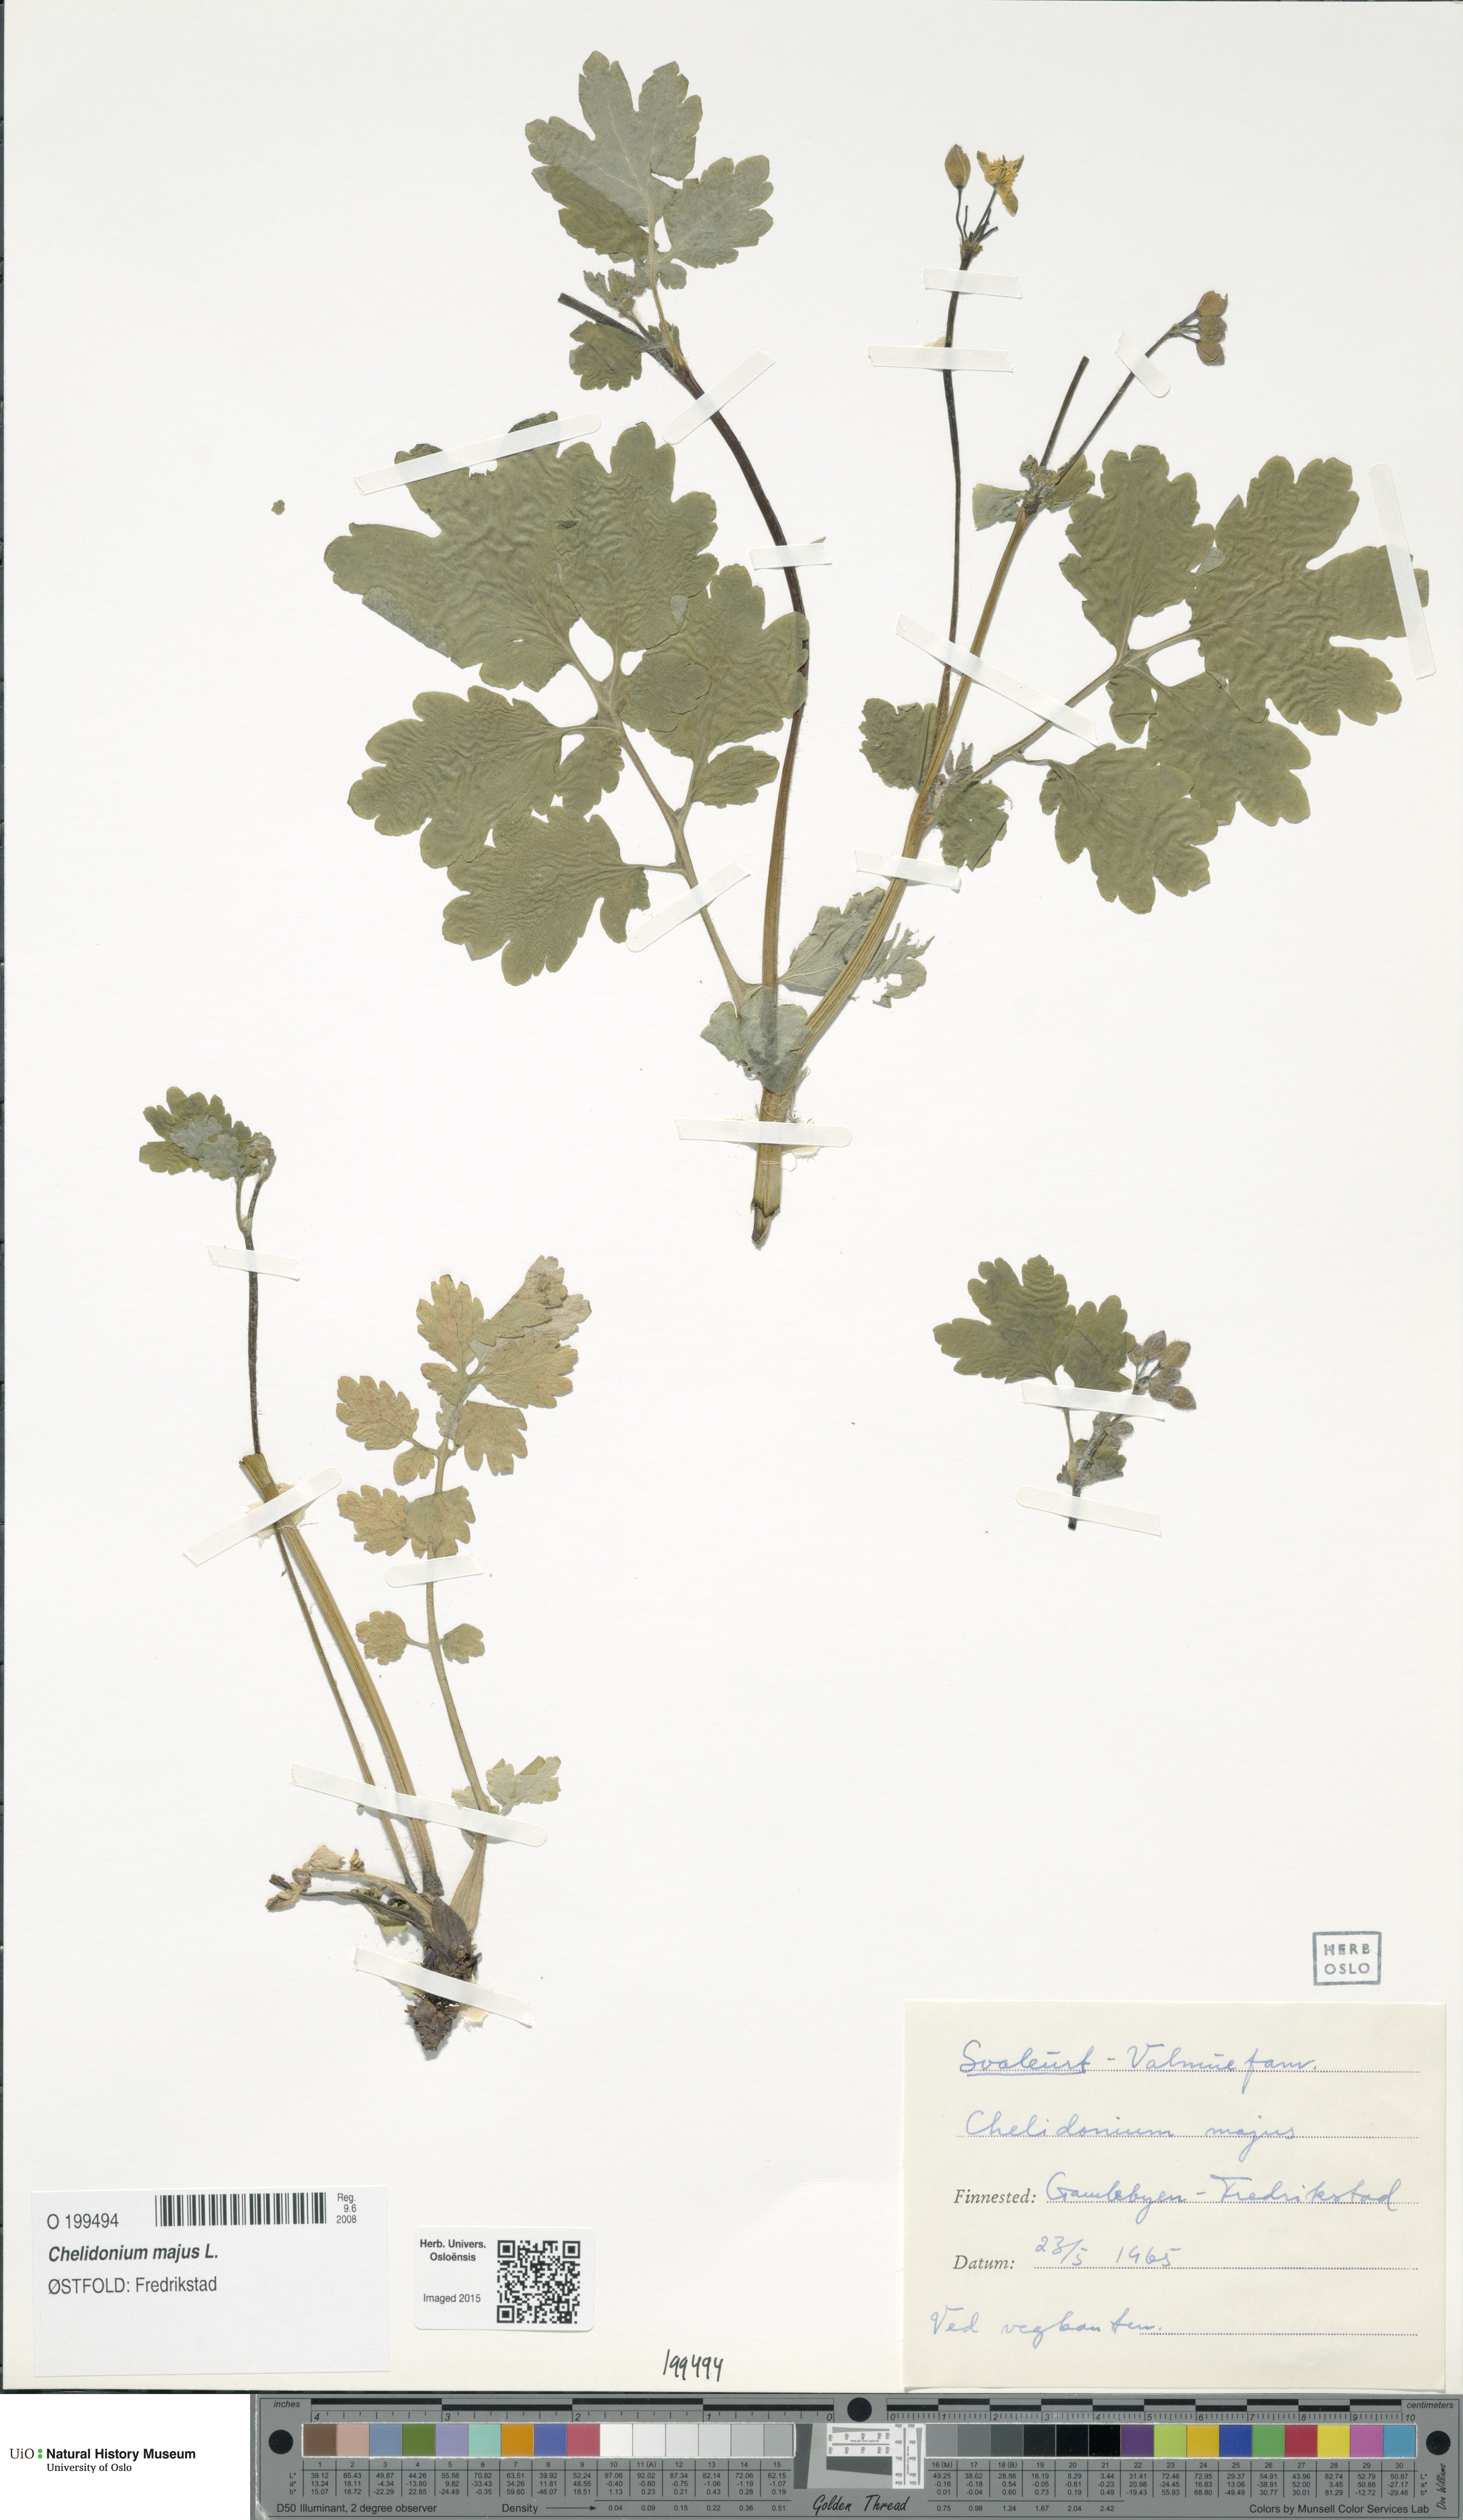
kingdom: Plantae
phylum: Tracheophyta
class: Magnoliopsida
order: Ranunculales
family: Papaveraceae
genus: Chelidonium
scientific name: Chelidonium majus
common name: Greater celandine
